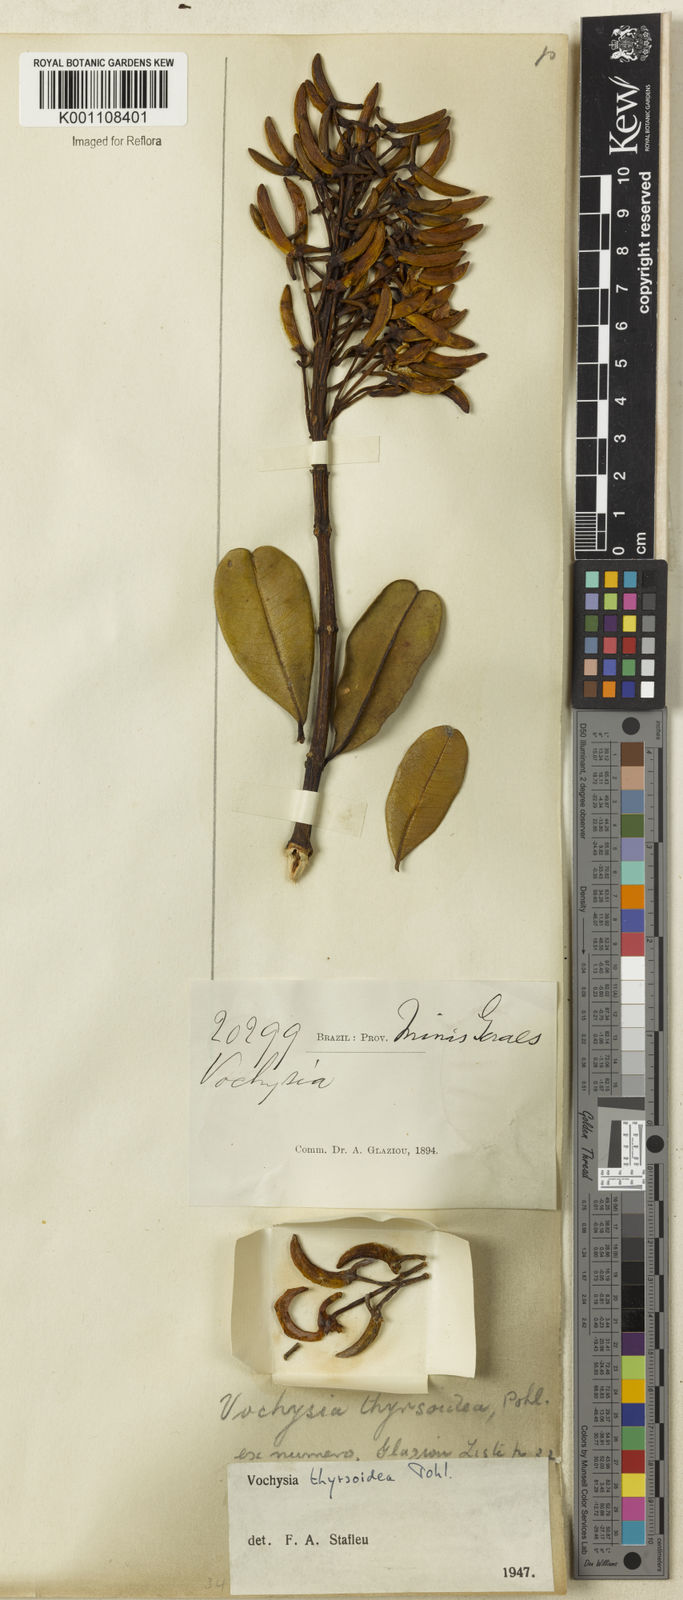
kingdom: Plantae
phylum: Tracheophyta
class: Magnoliopsida
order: Myrtales
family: Vochysiaceae
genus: Vochysia
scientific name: Vochysia thyrsoidea
